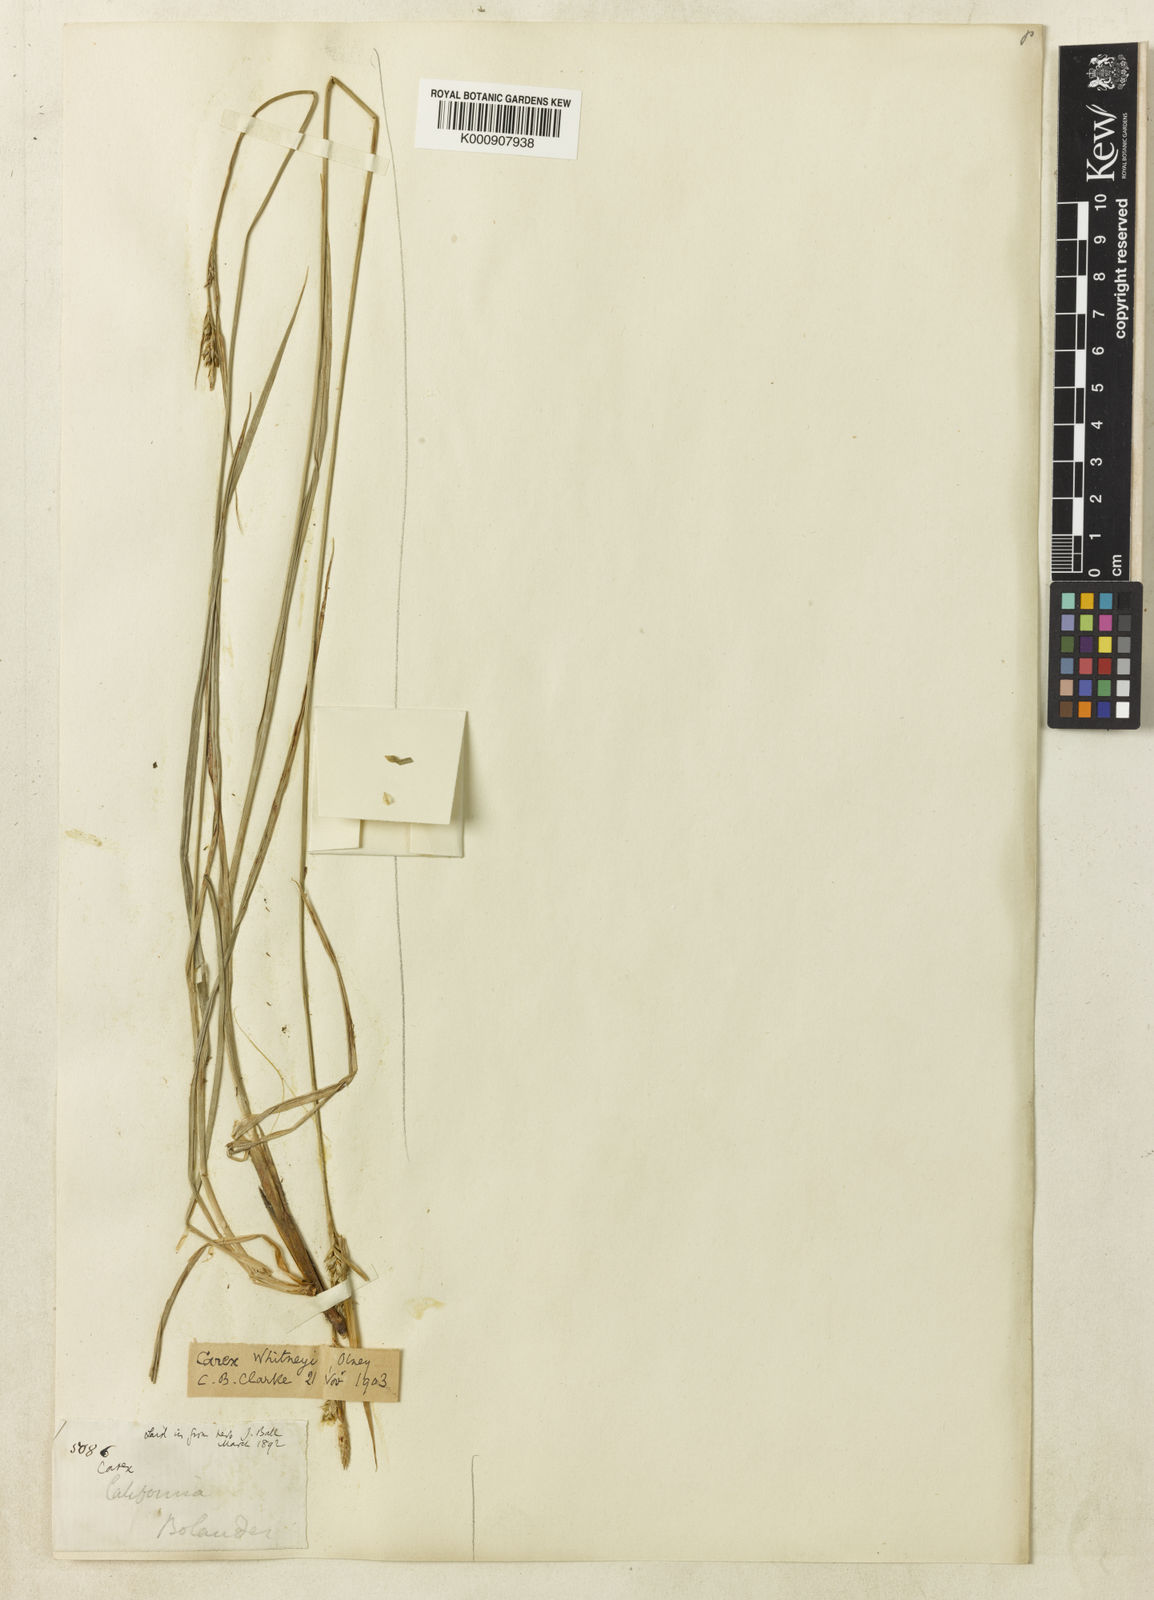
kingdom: Plantae
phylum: Tracheophyta
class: Liliopsida
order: Poales
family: Cyperaceae
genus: Carex
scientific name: Carex whitneyi
